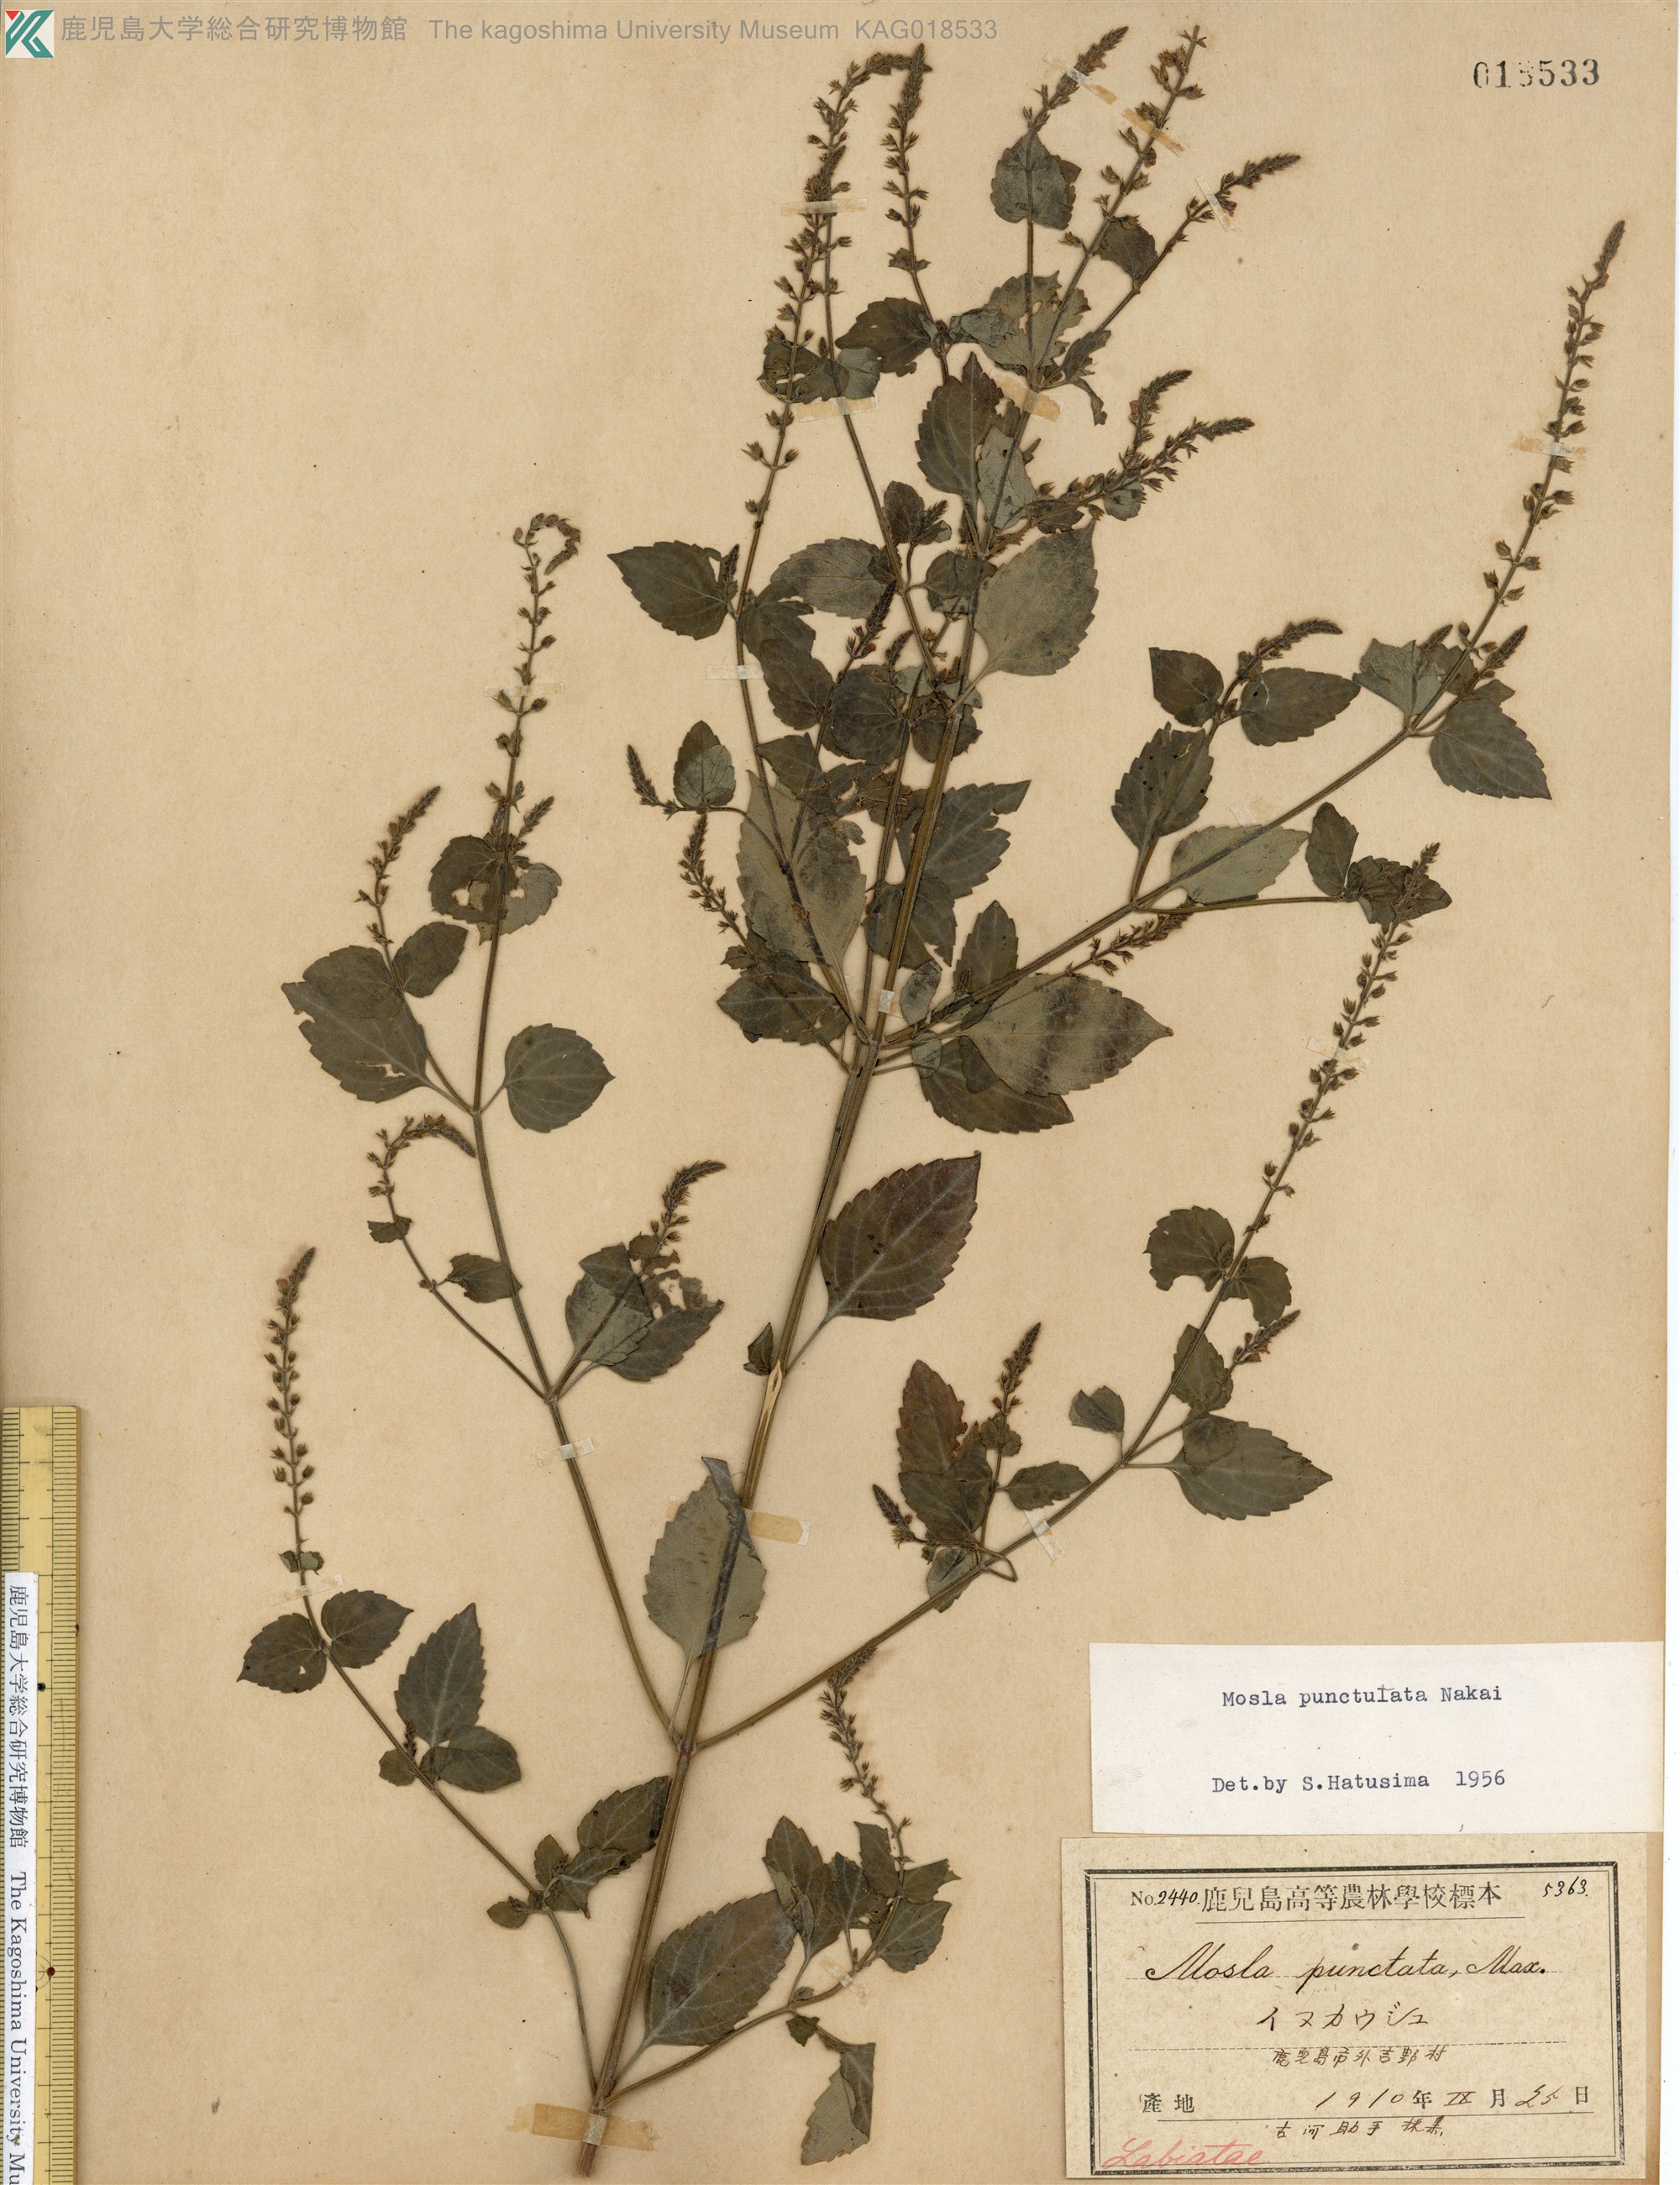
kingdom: Plantae
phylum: Tracheophyta
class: Magnoliopsida
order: Lamiales
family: Lamiaceae
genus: Mosla
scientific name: Mosla scabra
